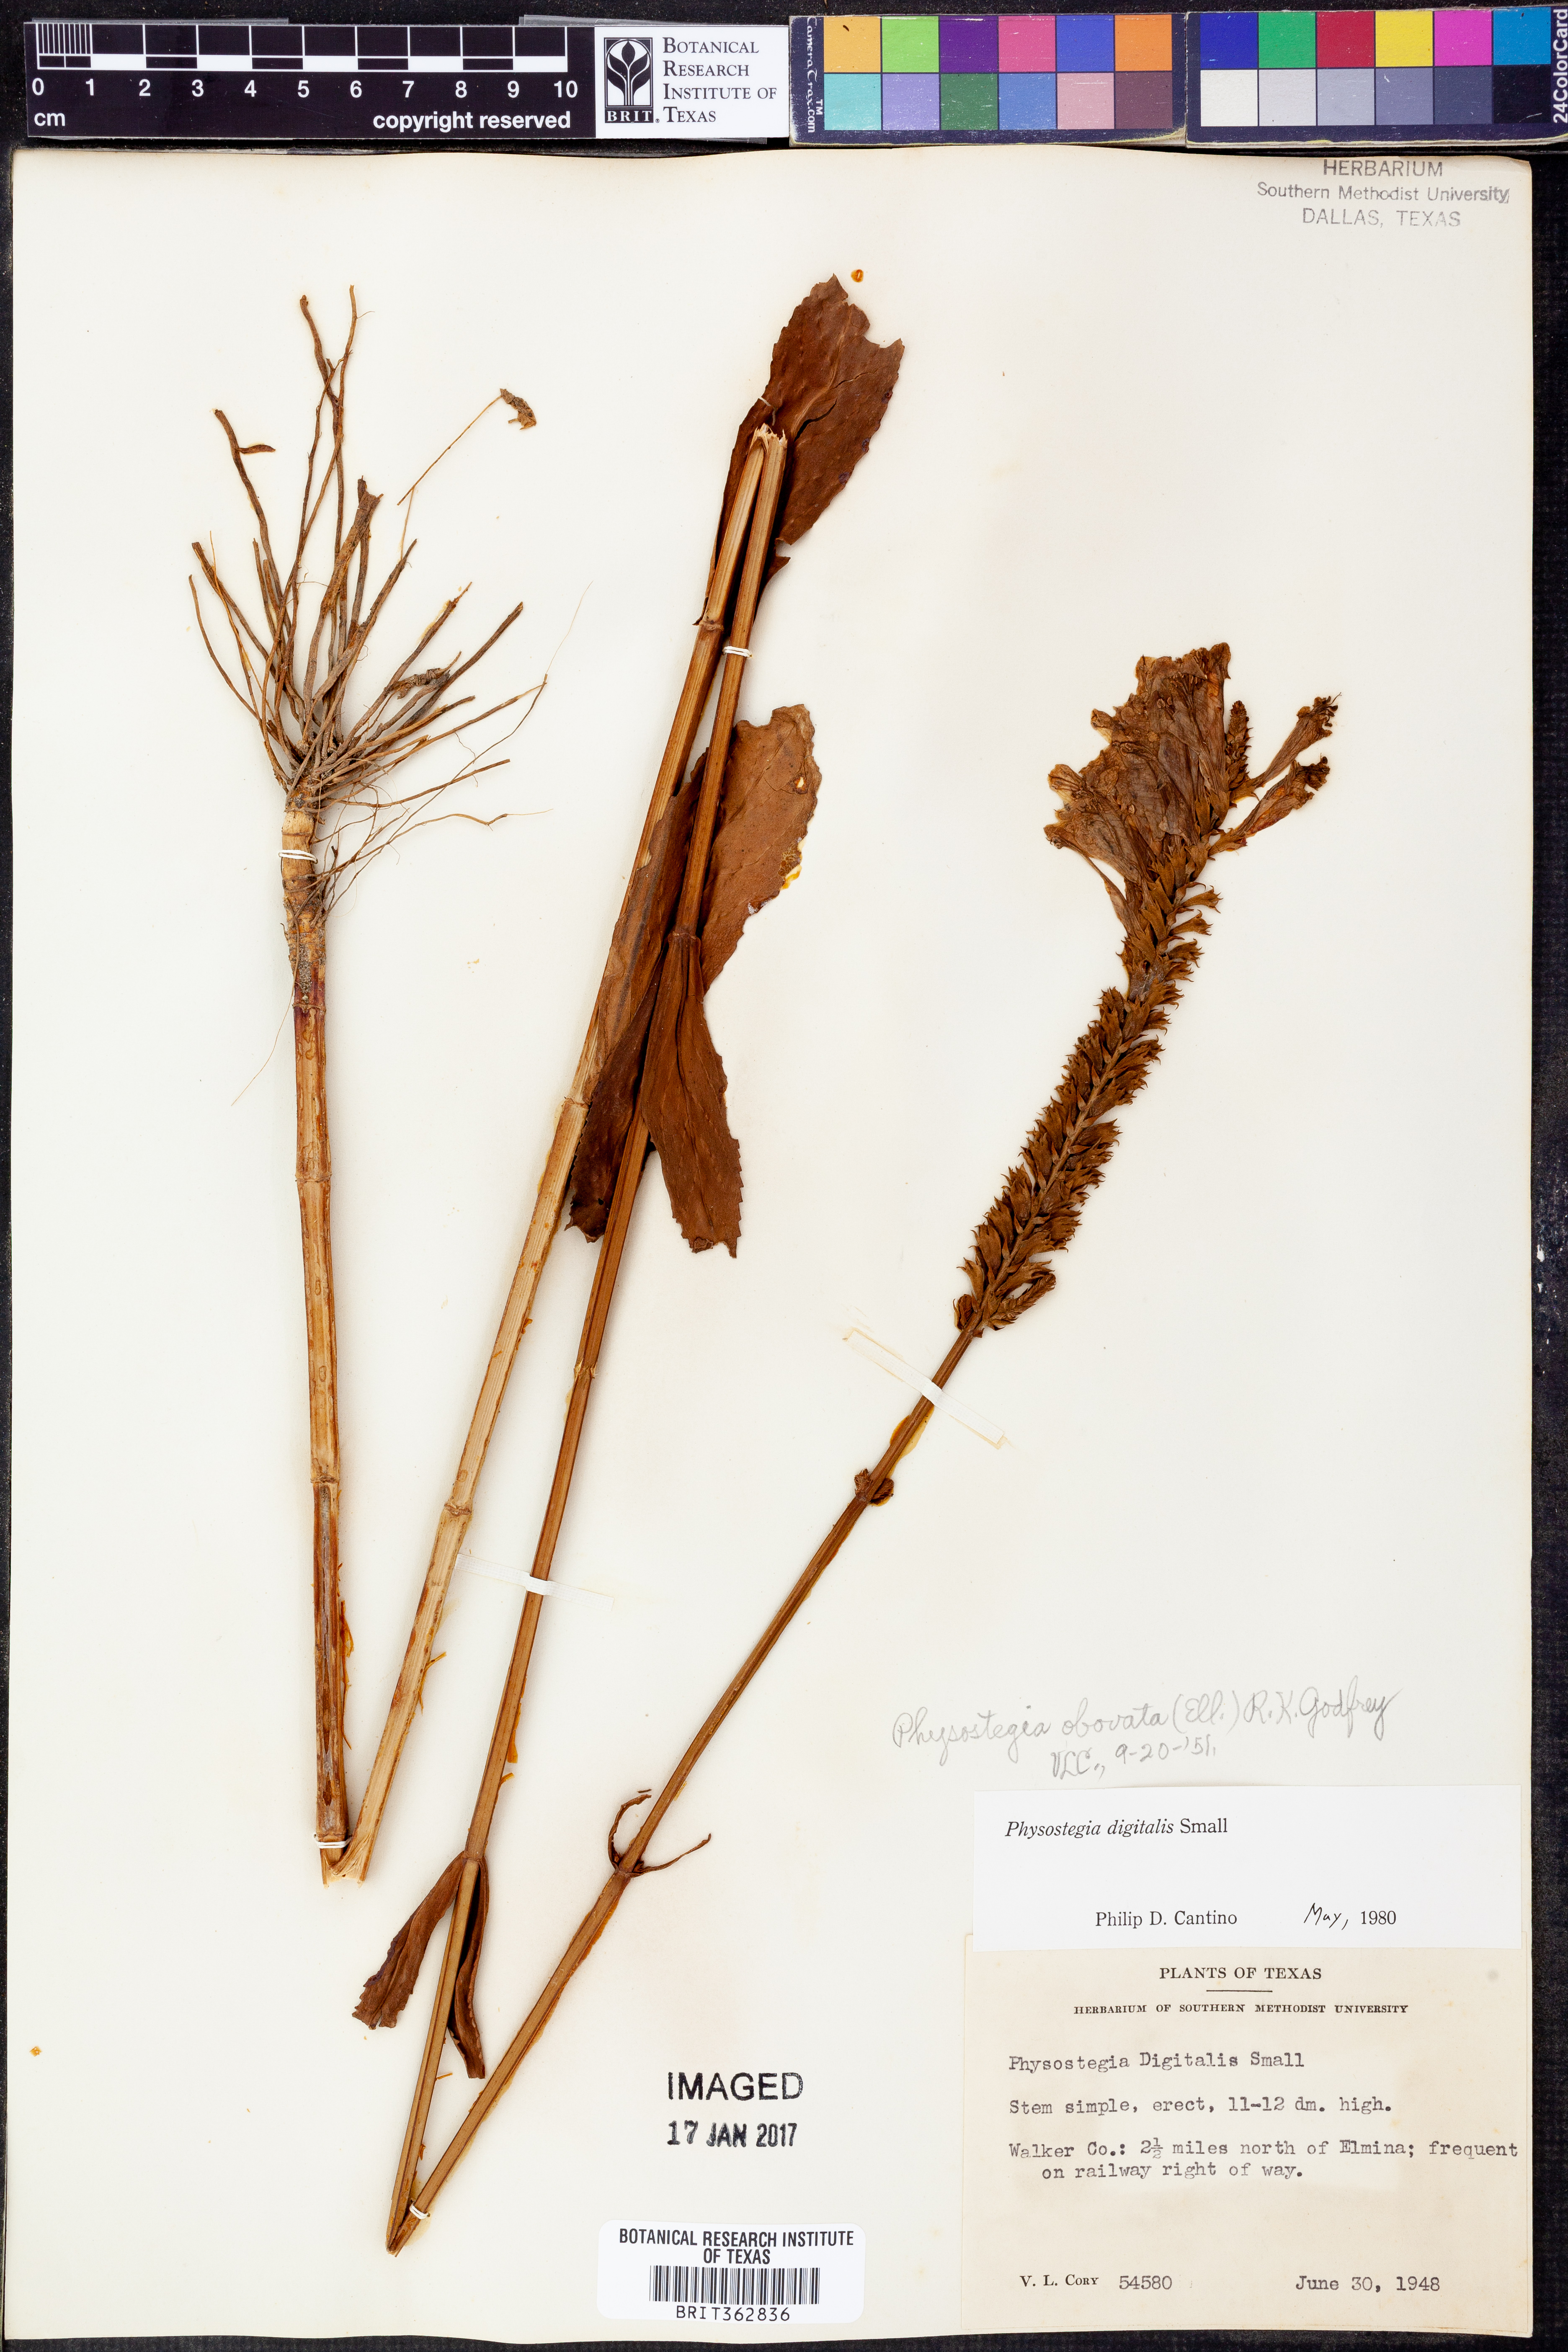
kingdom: Plantae
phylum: Tracheophyta
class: Magnoliopsida
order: Lamiales
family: Lamiaceae
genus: Physostegia
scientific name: Physostegia digitalis
